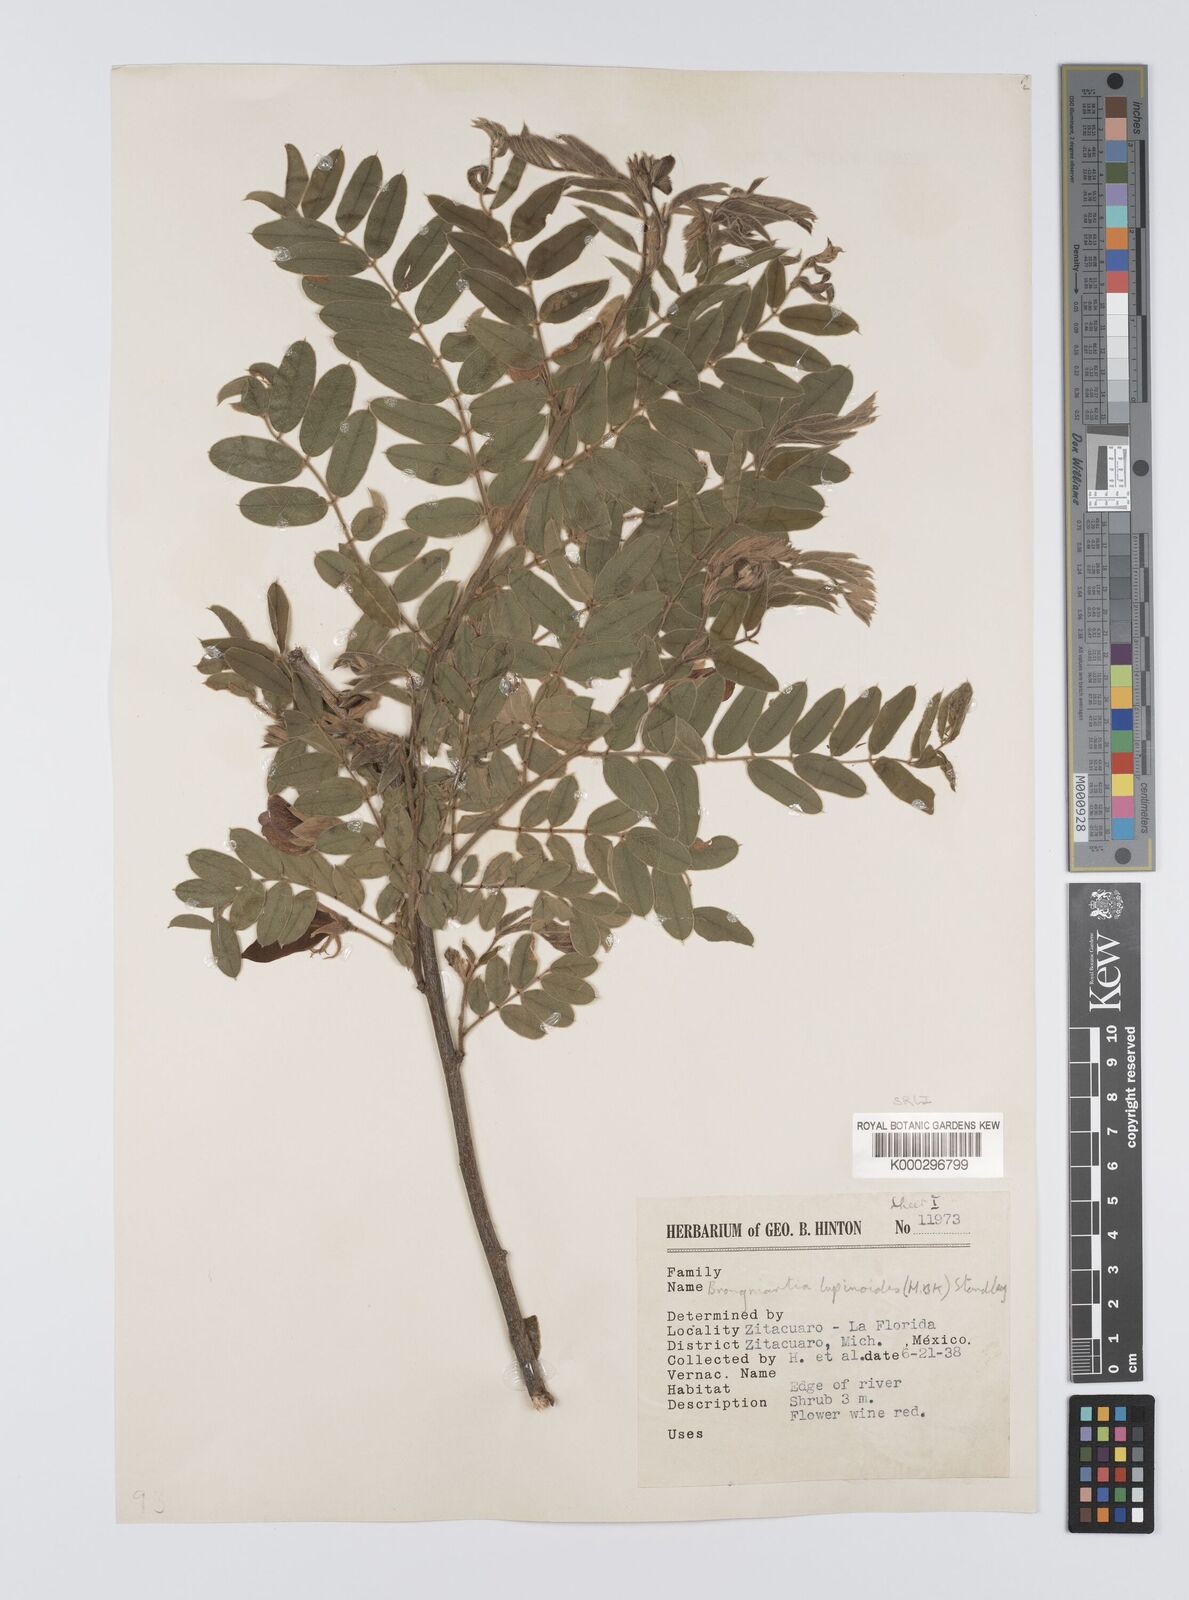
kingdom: Plantae
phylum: Tracheophyta
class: Magnoliopsida
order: Fabales
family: Fabaceae
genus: Brongniartia
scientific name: Brongniartia
